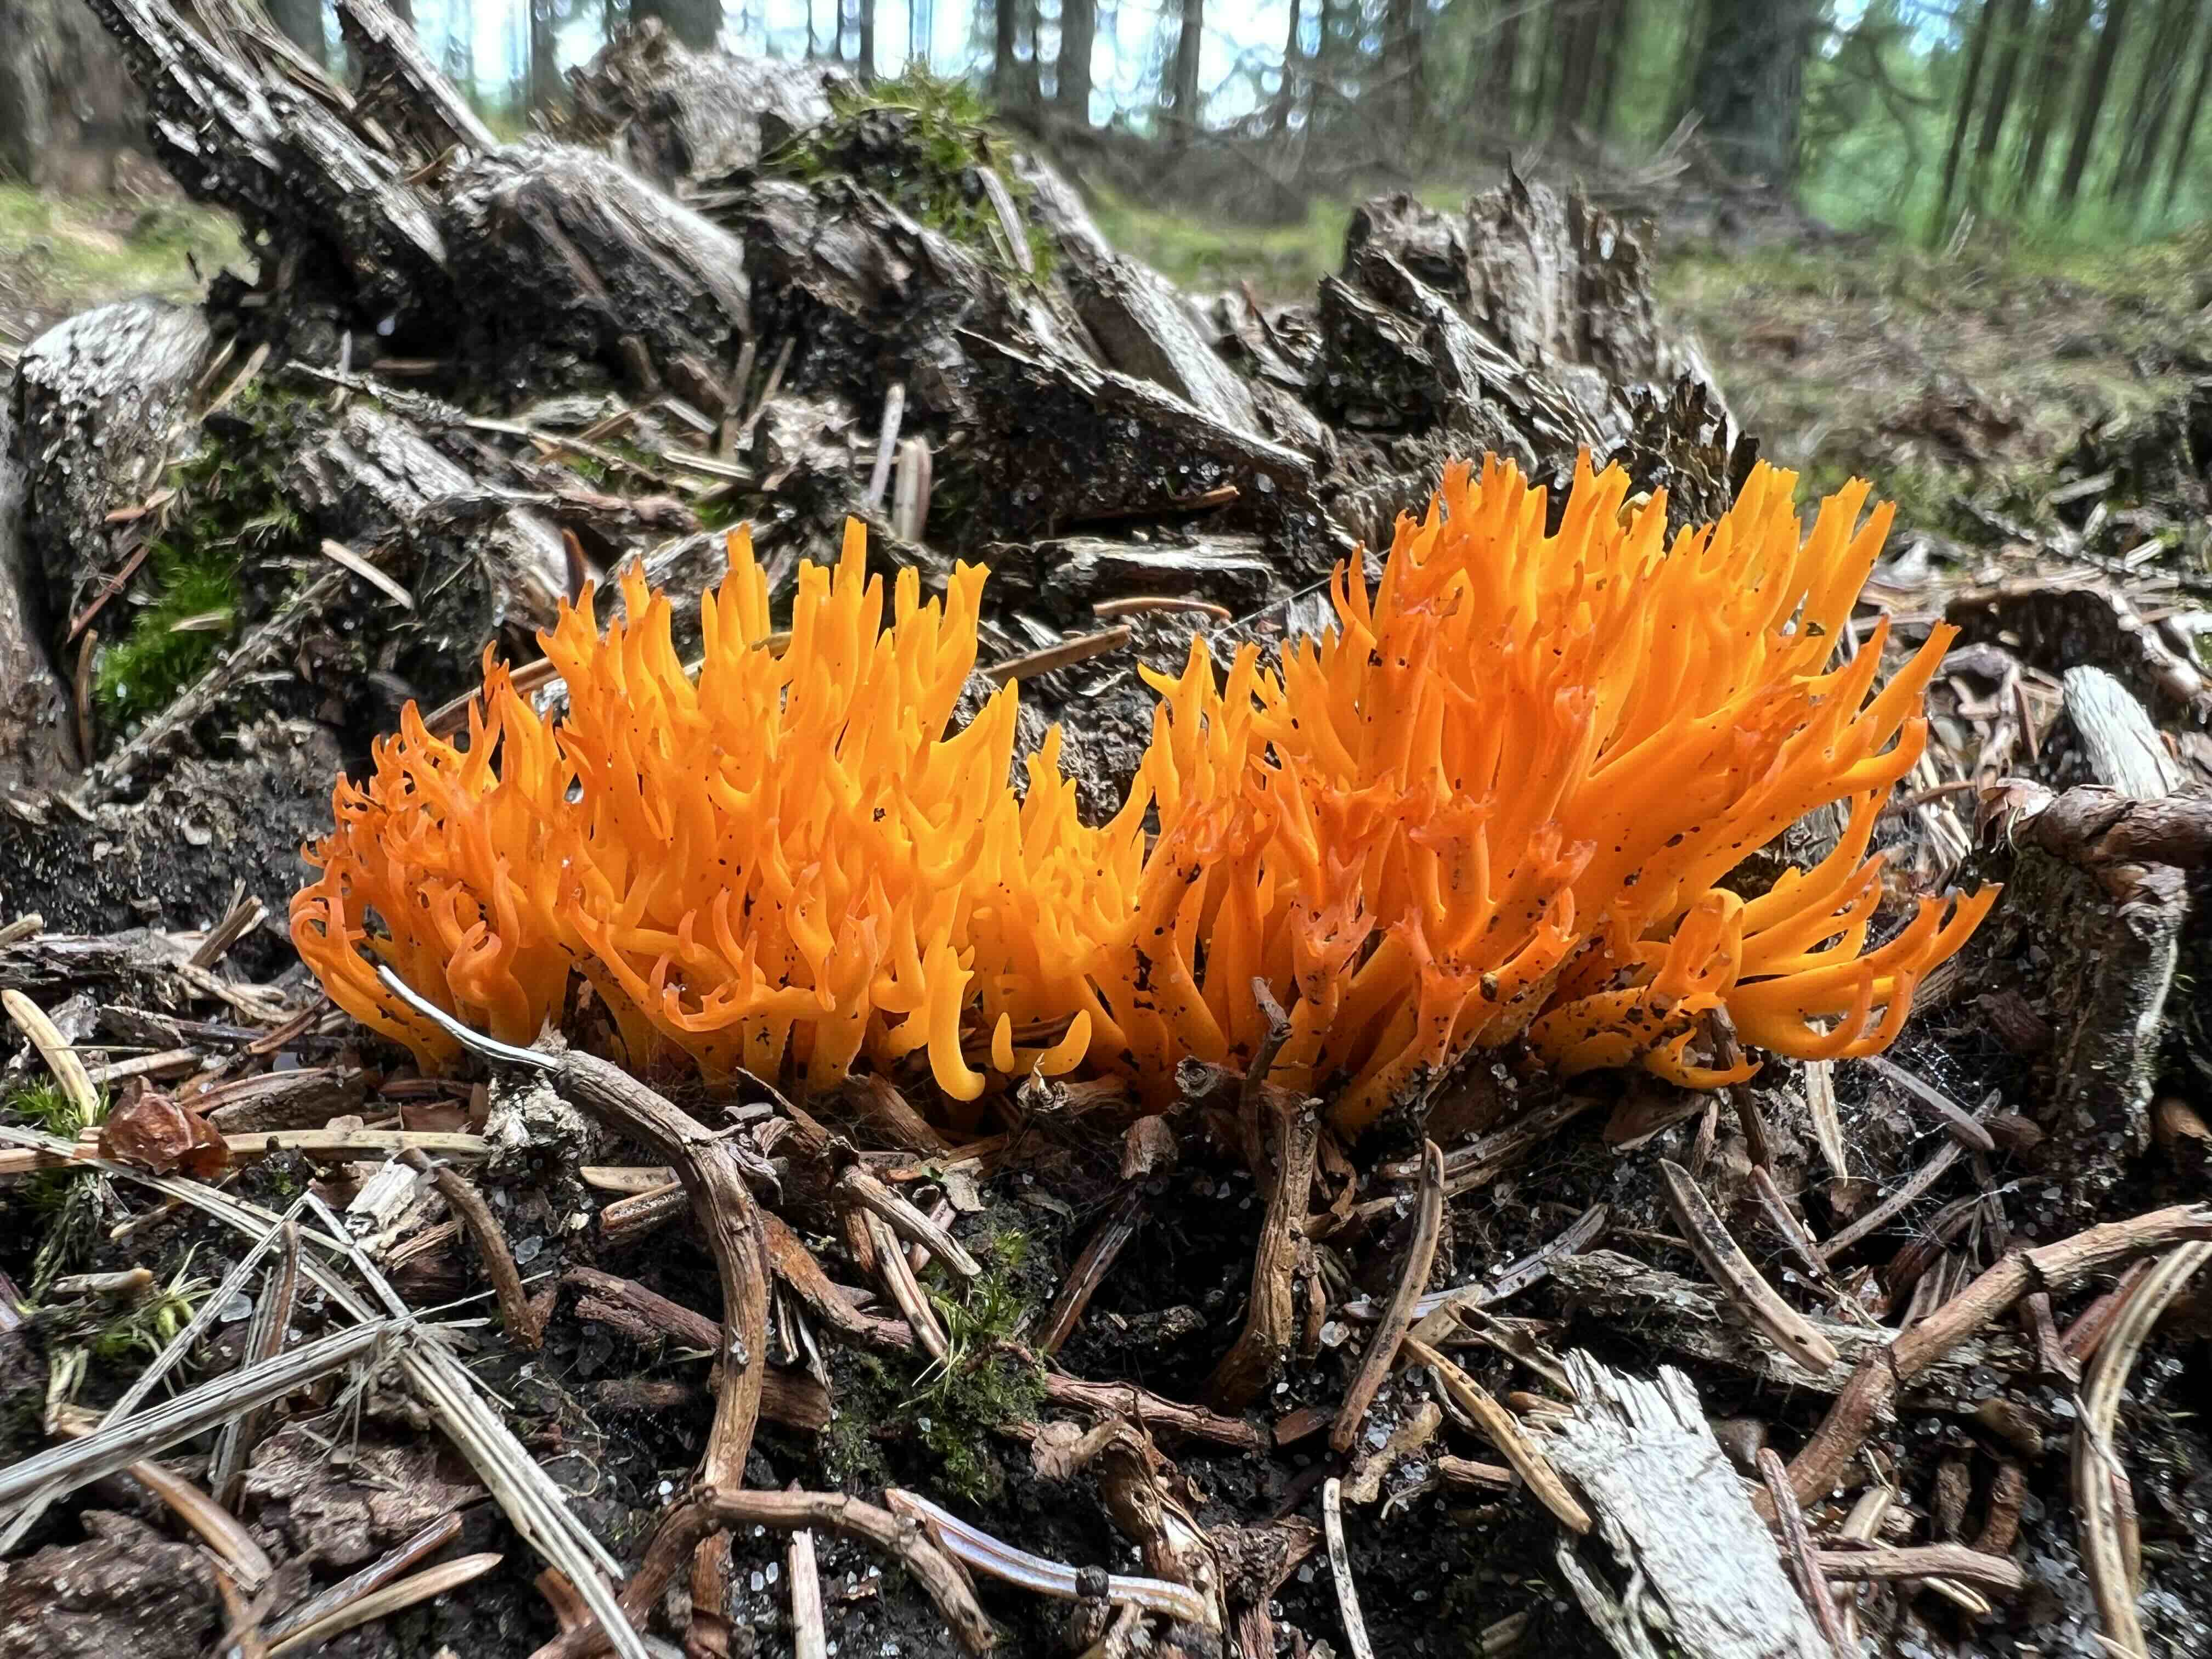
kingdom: Fungi
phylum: Basidiomycota
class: Dacrymycetes
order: Dacrymycetales
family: Dacrymycetaceae
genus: Calocera
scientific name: Calocera viscosa
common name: almindelig guldgaffel
